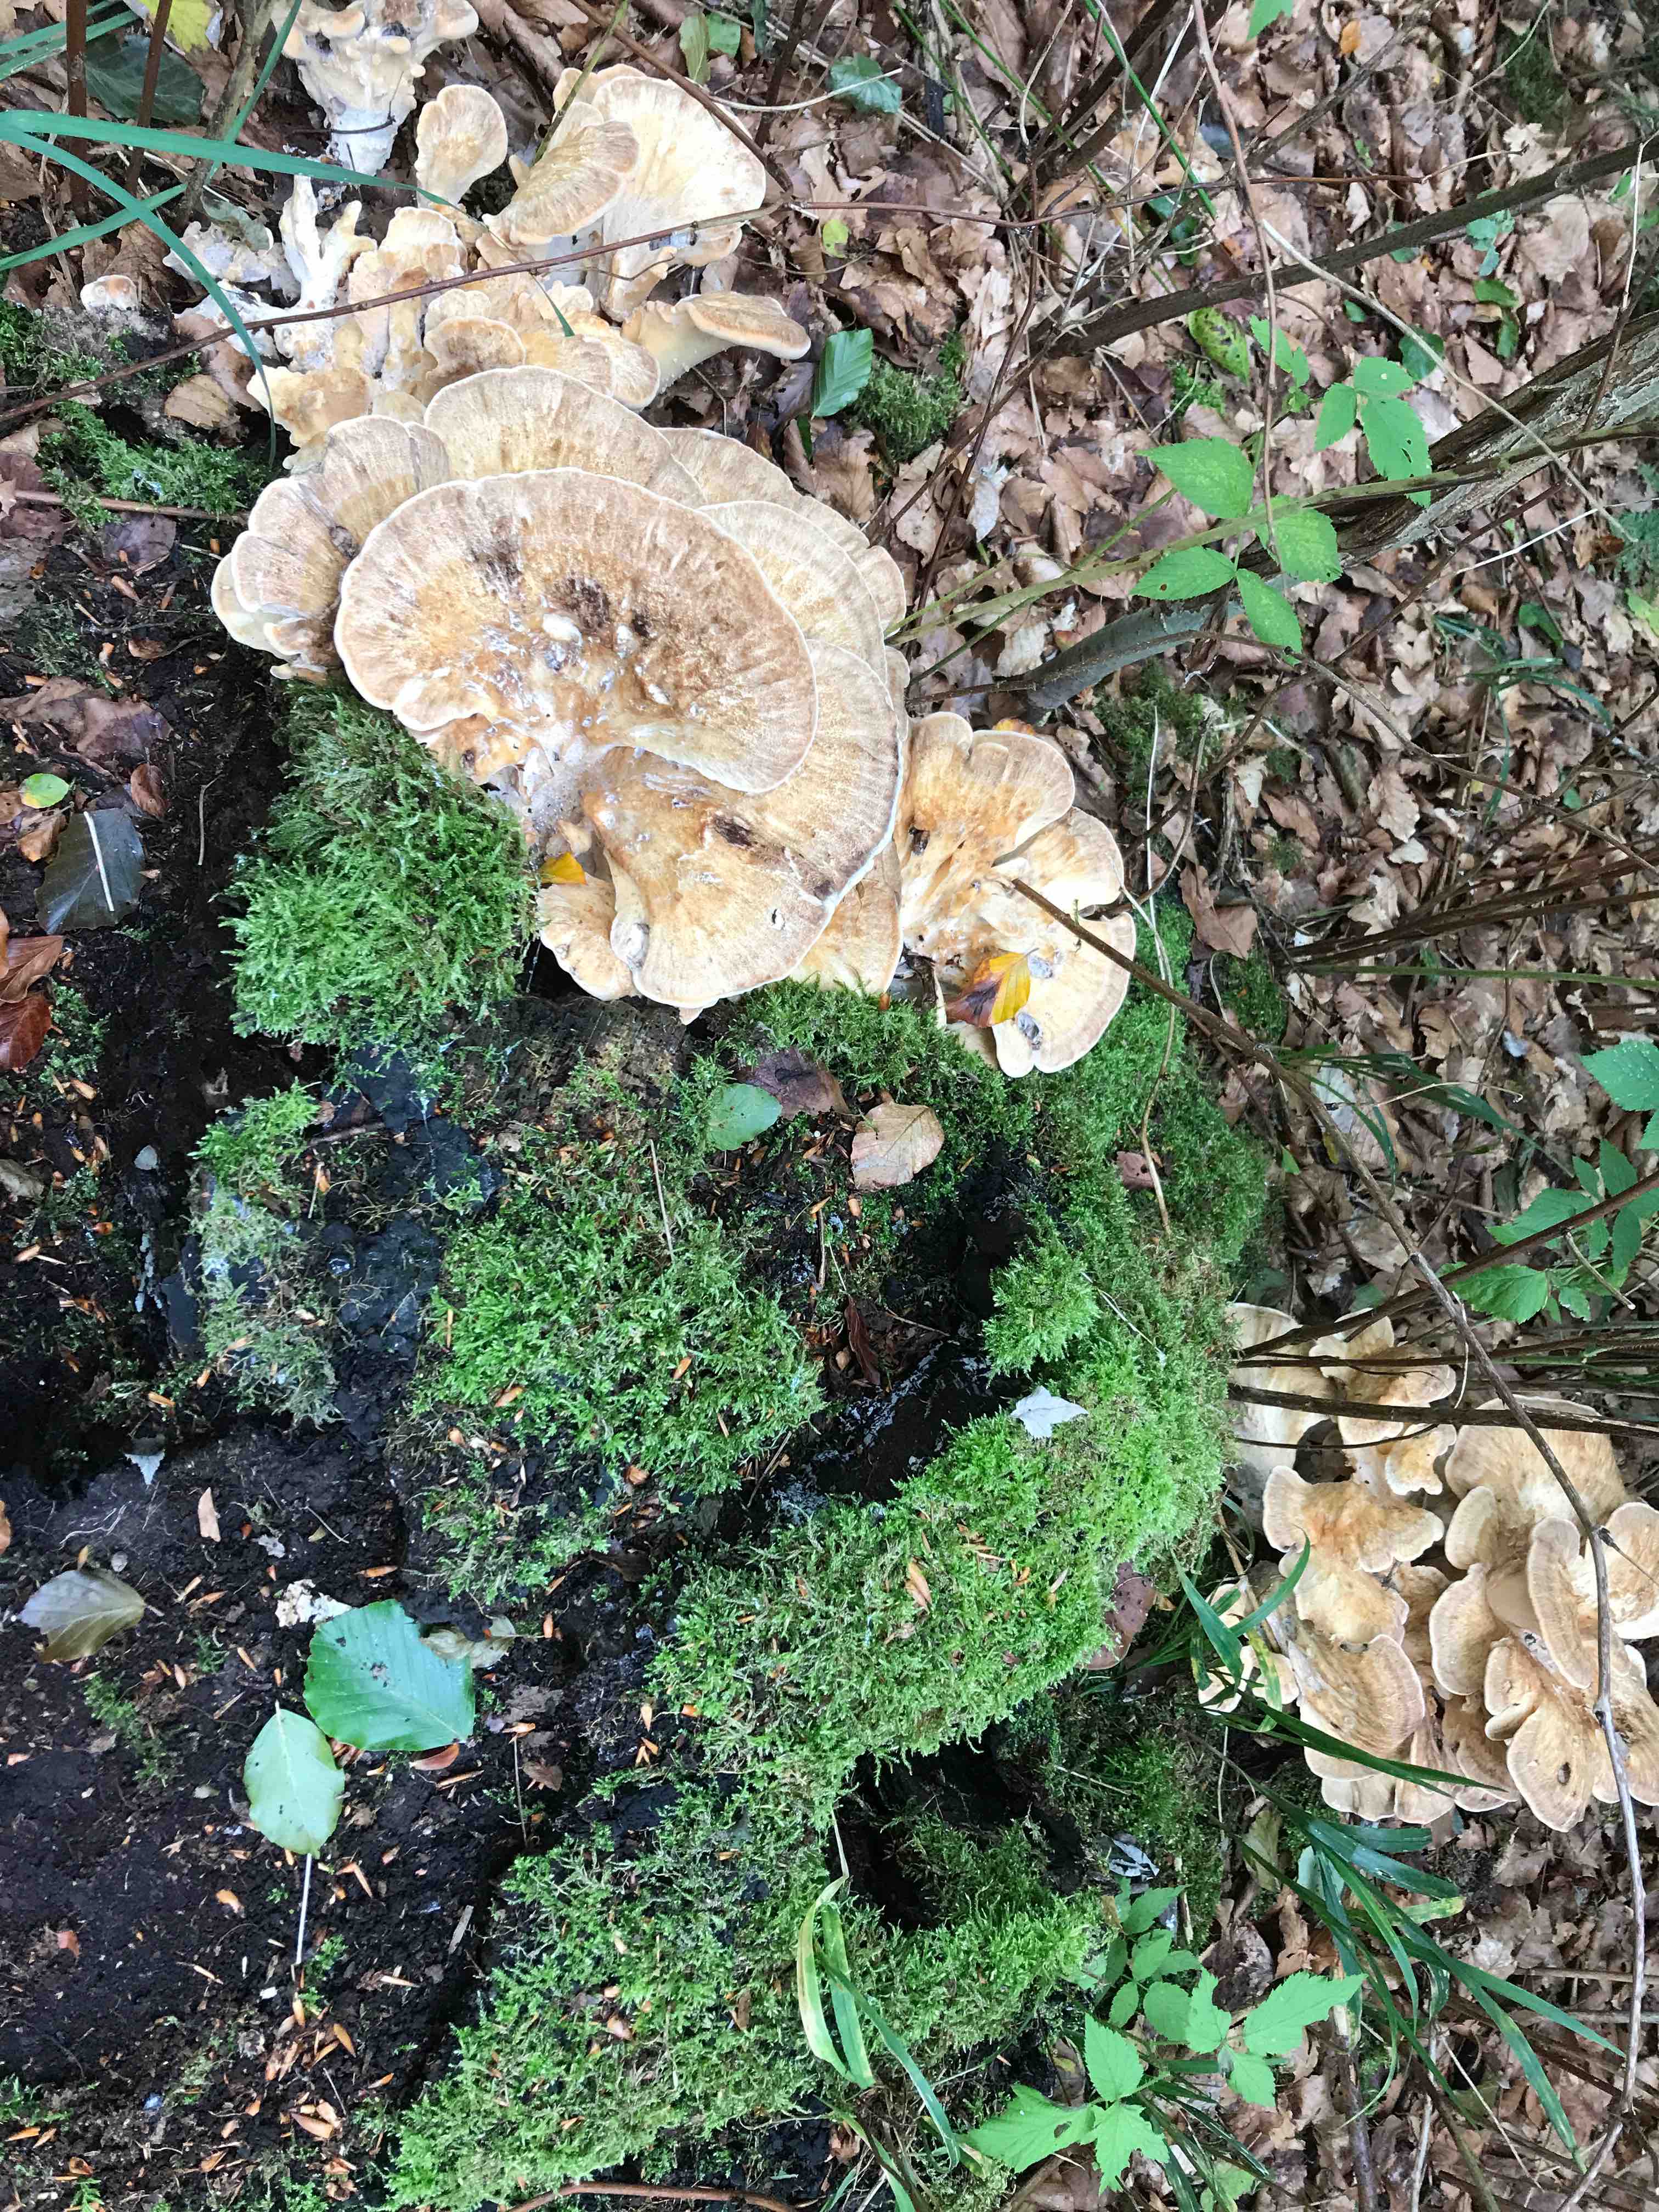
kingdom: Fungi
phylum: Basidiomycota
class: Agaricomycetes
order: Polyporales
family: Meripilaceae
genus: Meripilus
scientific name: Meripilus giganteus
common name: kæmpeporesvamp
